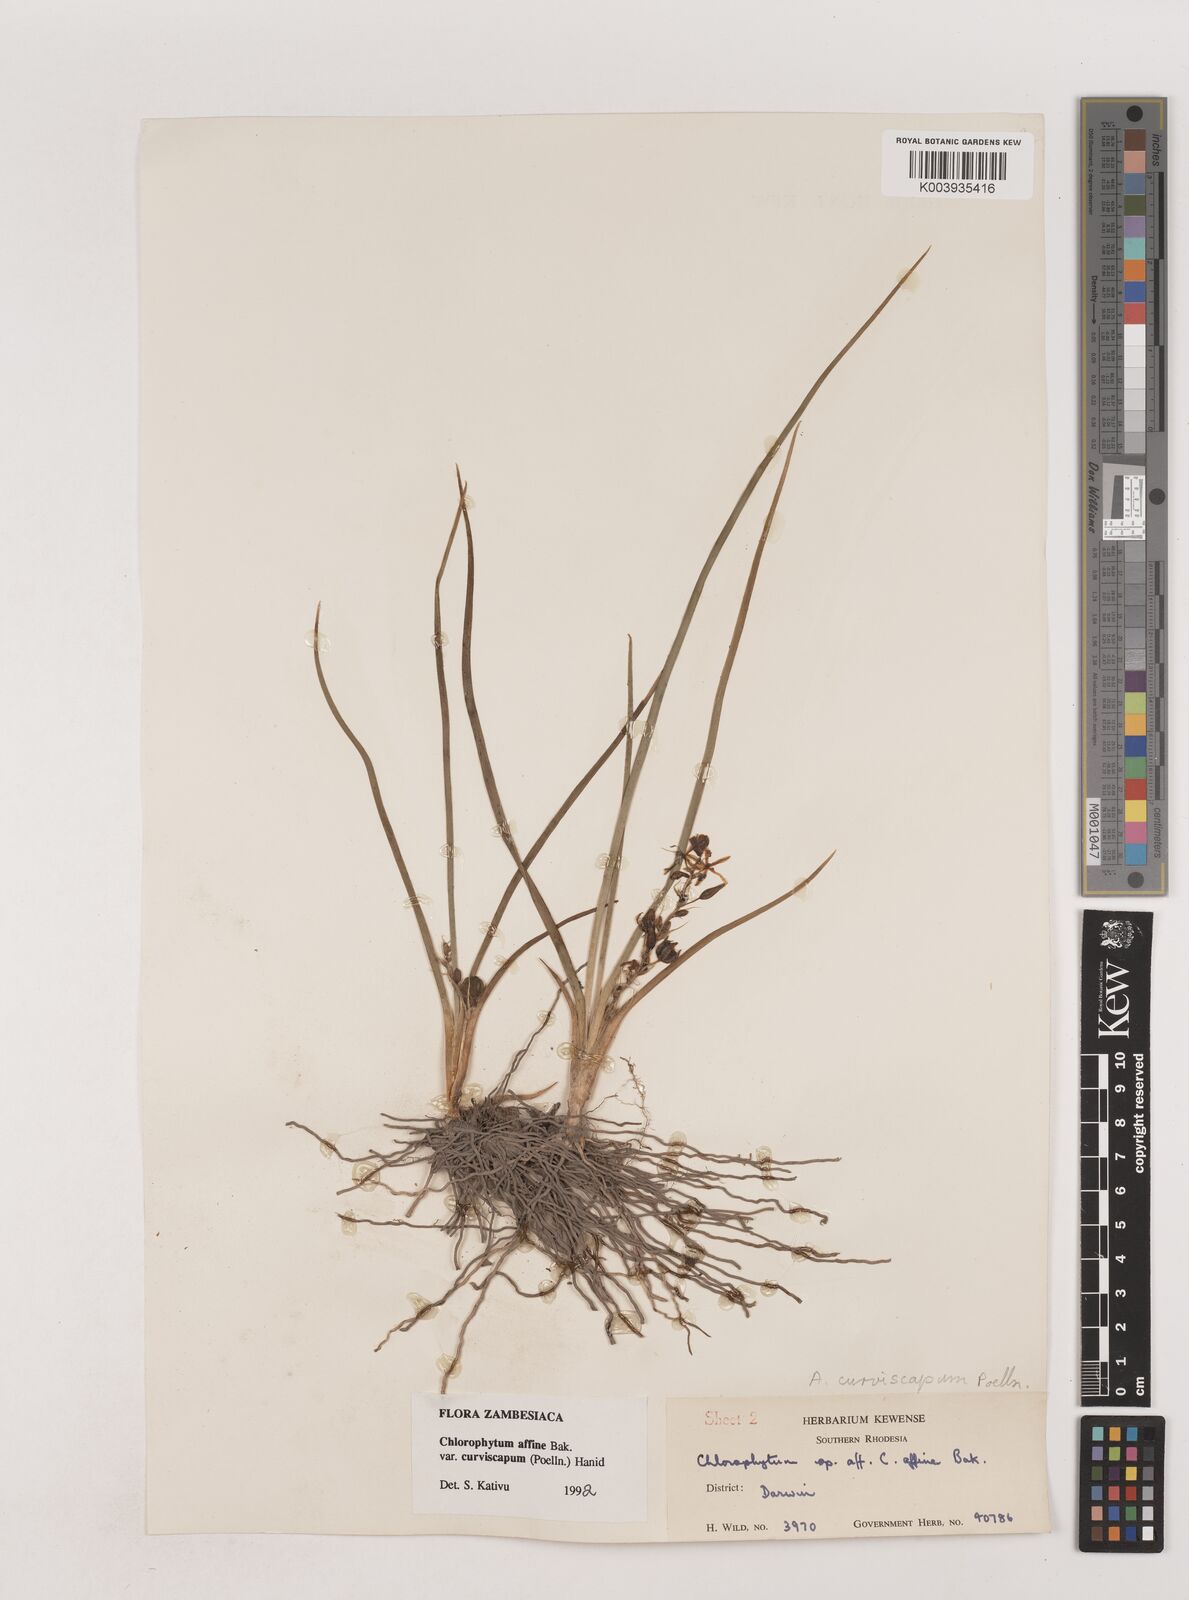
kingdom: Plantae
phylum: Tracheophyta
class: Liliopsida
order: Asparagales
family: Asparagaceae
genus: Chlorophytum
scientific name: Chlorophytum tordense
